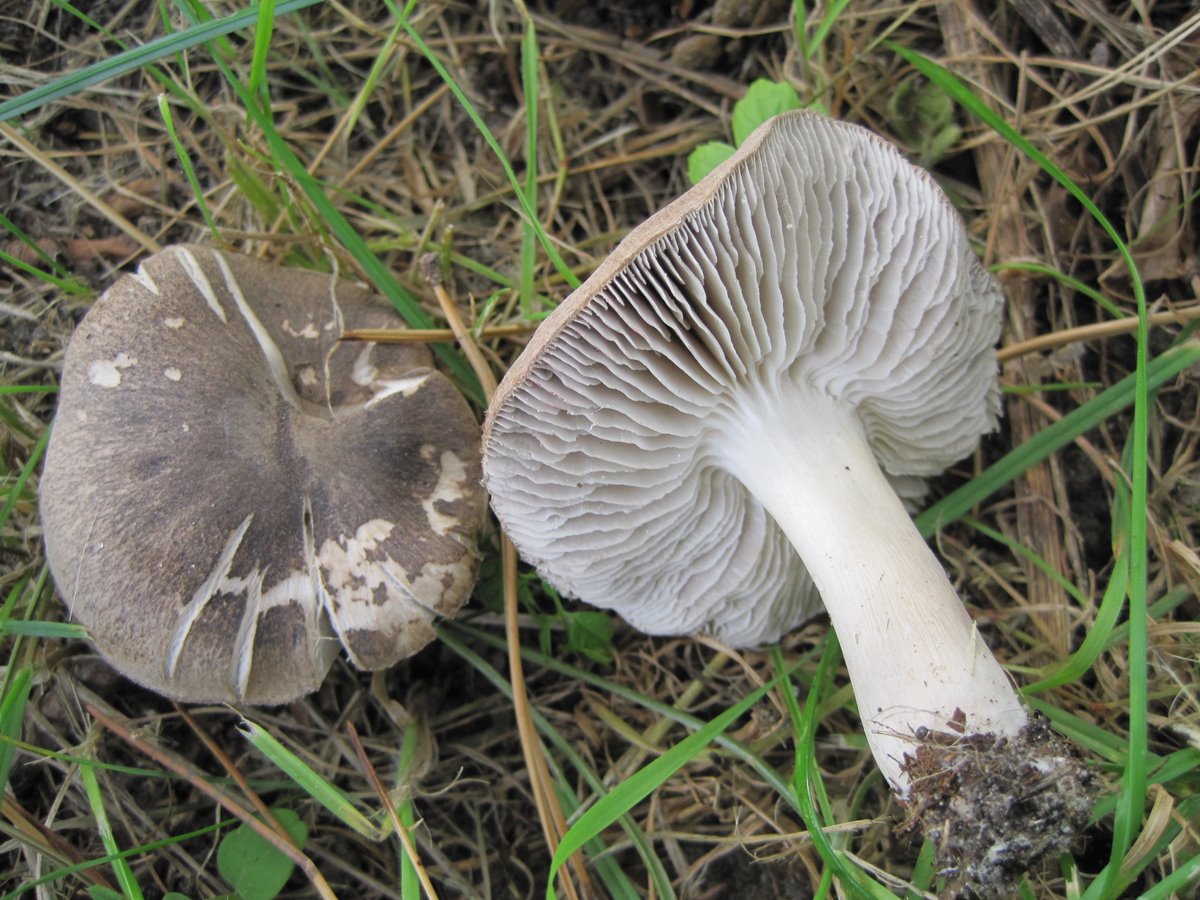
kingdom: Fungi
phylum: Basidiomycota
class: Agaricomycetes
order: Agaricales
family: Tricholomataceae
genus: Tricholoma
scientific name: Tricholoma terreum
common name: jordfarvet ridderhat
